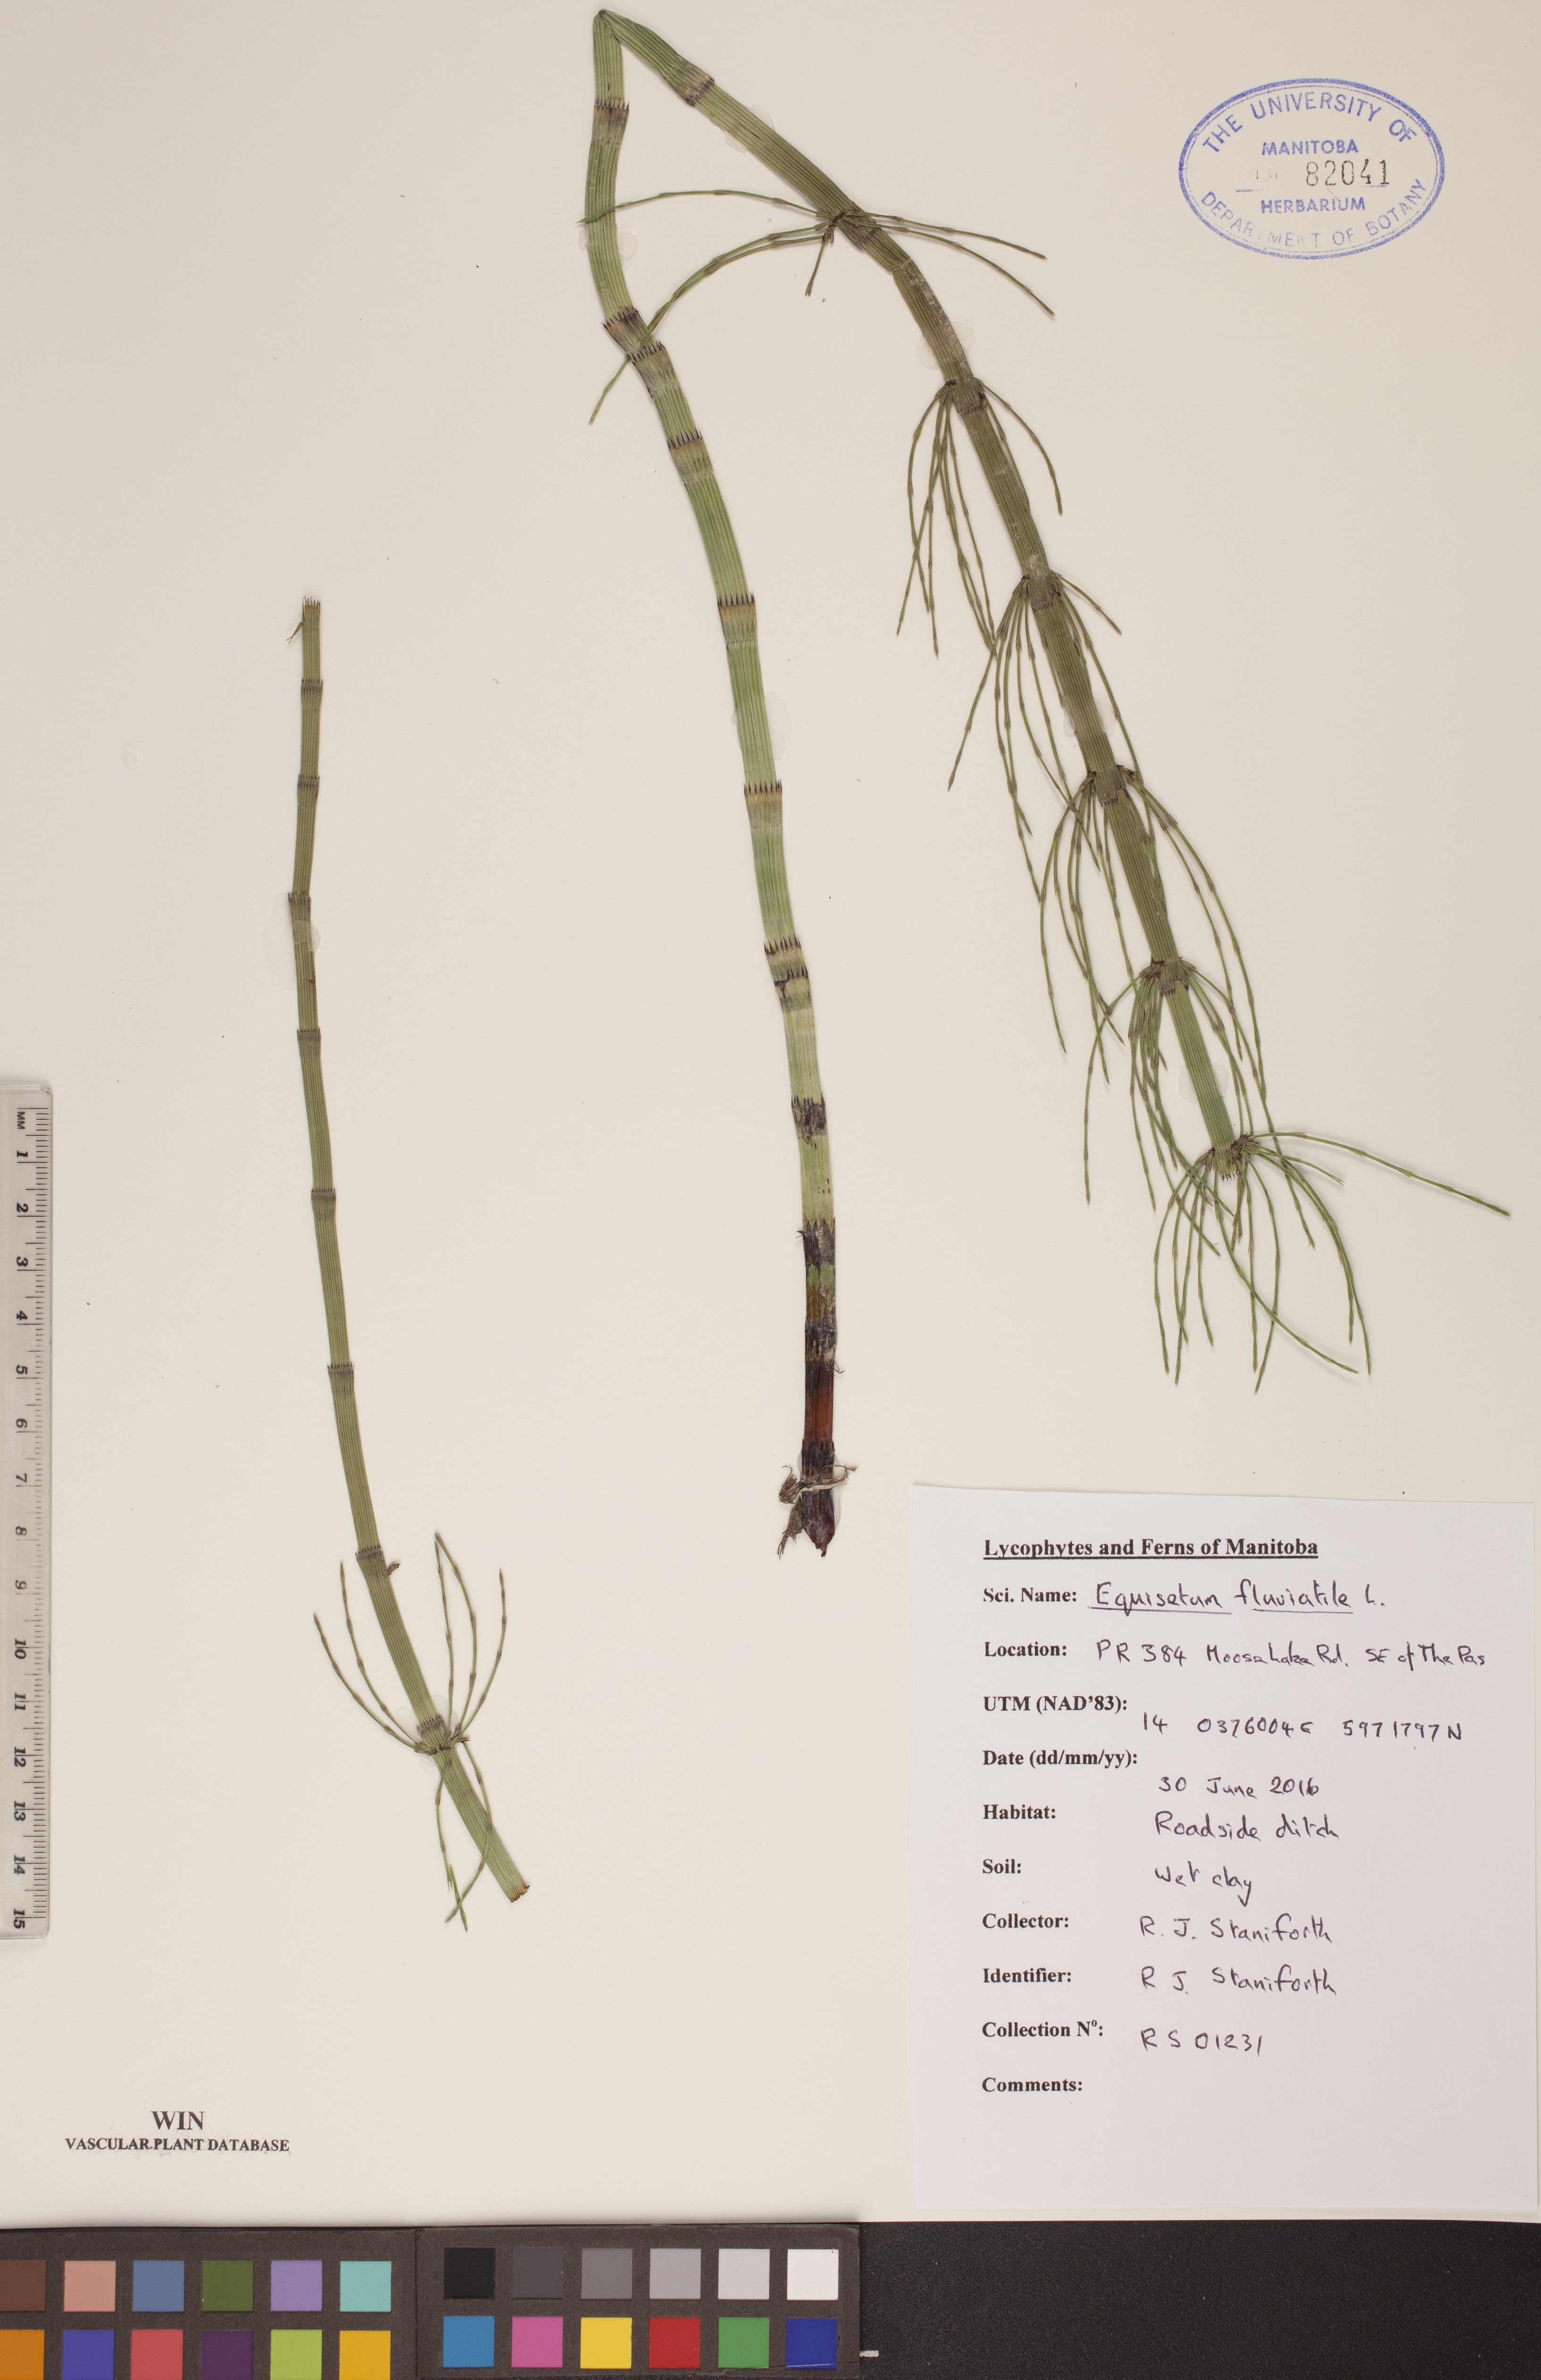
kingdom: Plantae
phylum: Tracheophyta
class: Polypodiopsida
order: Equisetales
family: Equisetaceae
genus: Equisetum
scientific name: Equisetum fluviatile
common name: Water horsetail
